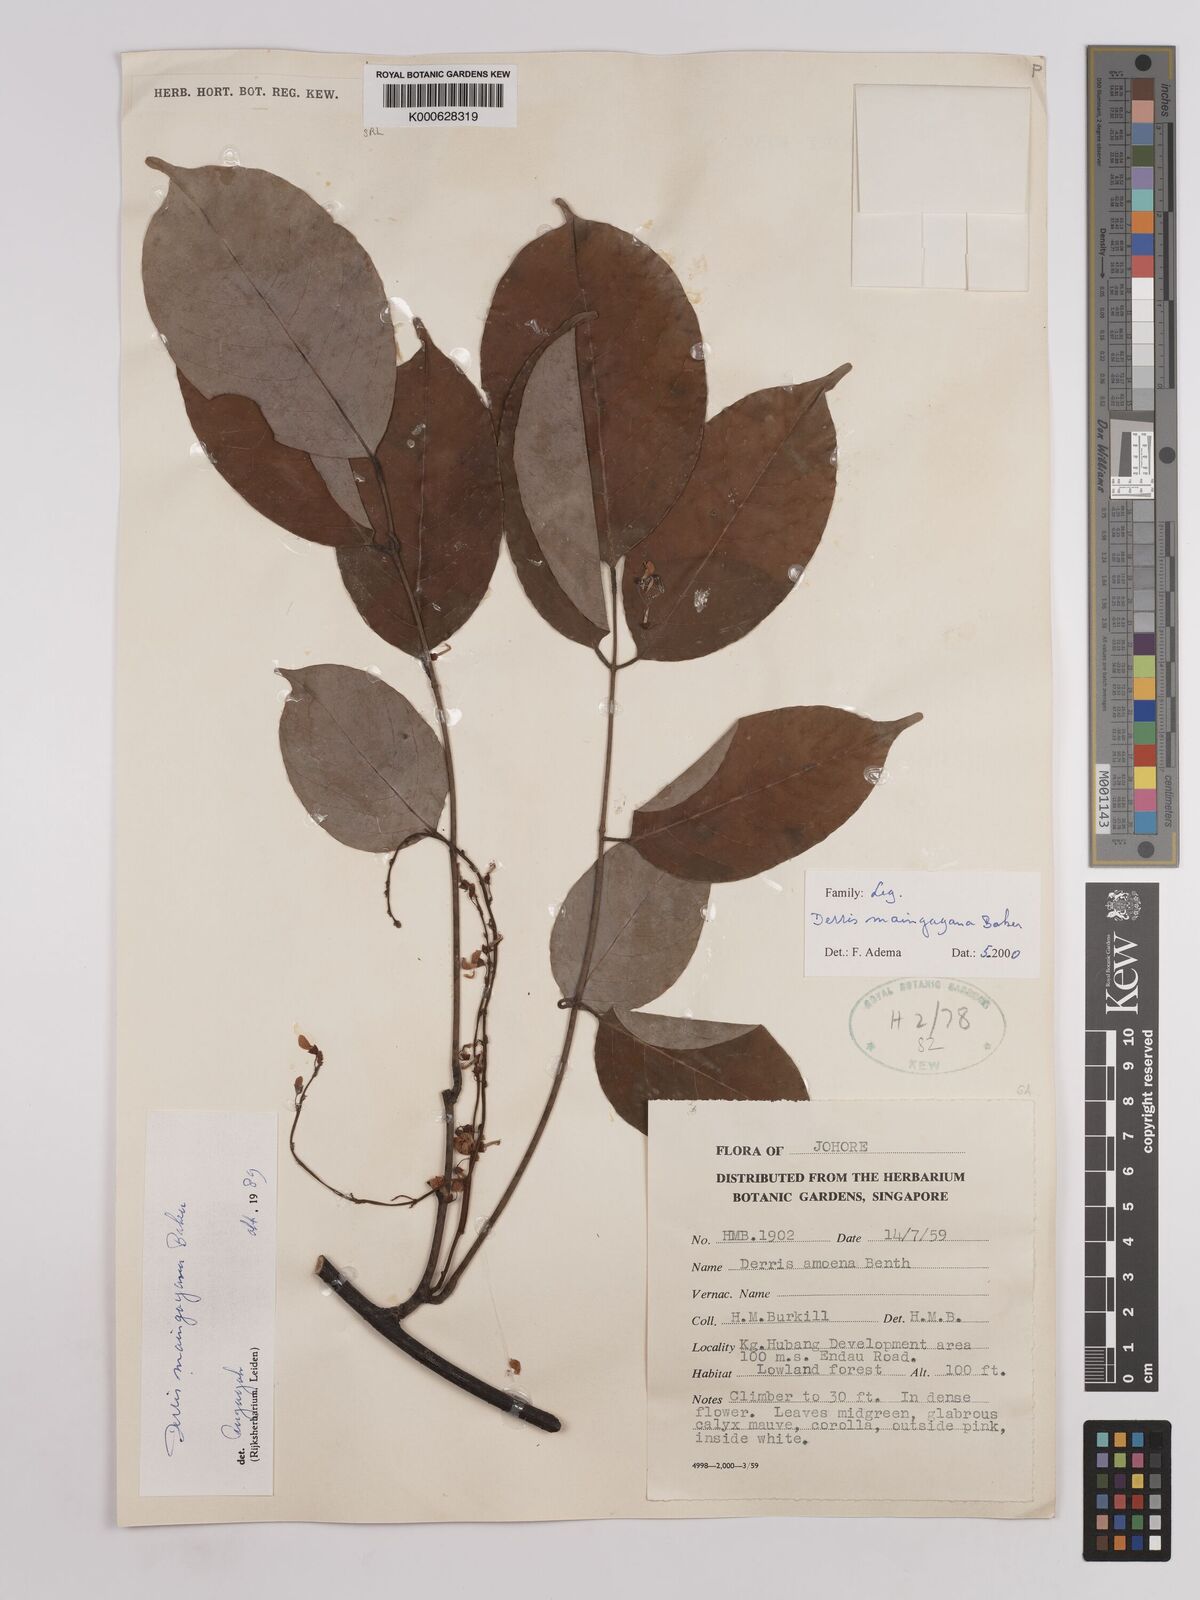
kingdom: Plantae
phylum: Tracheophyta
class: Magnoliopsida
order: Fabales
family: Fabaceae
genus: Derris
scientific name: Derris amoena
